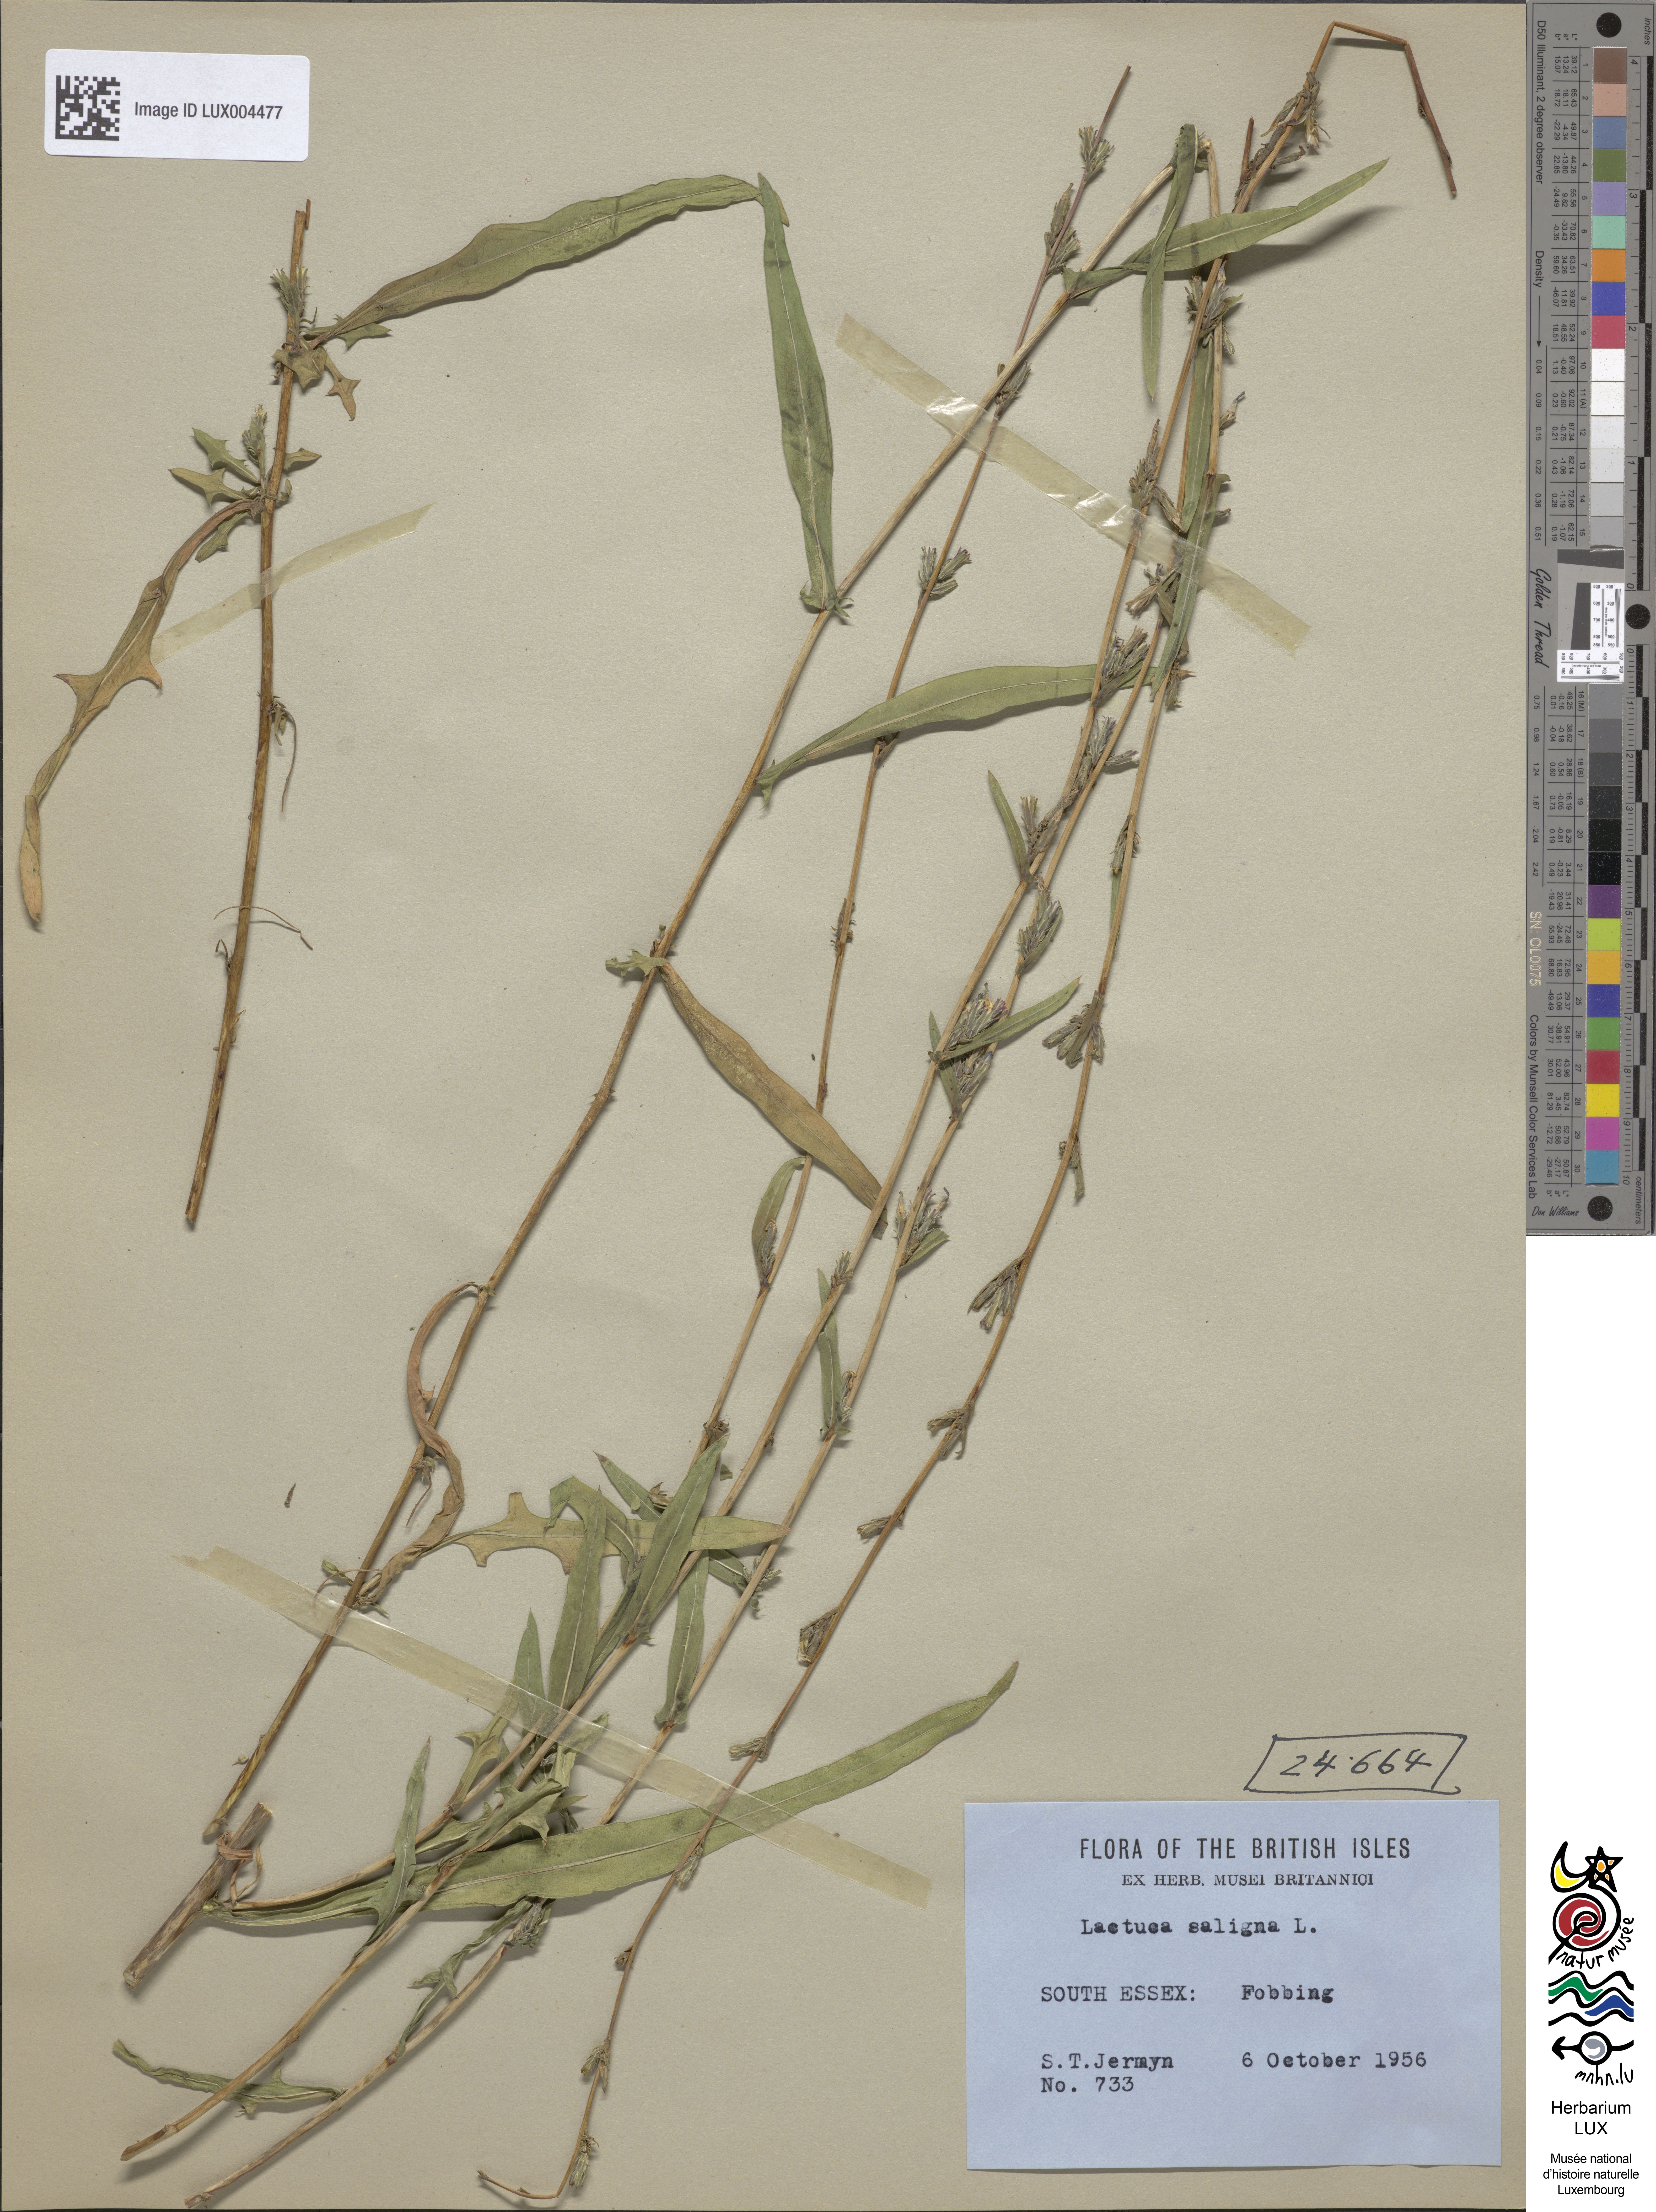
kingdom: Plantae
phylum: Tracheophyta
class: Magnoliopsida
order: Asterales
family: Asteraceae
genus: Lactuca
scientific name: Lactuca saligna
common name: Wild lettuce
